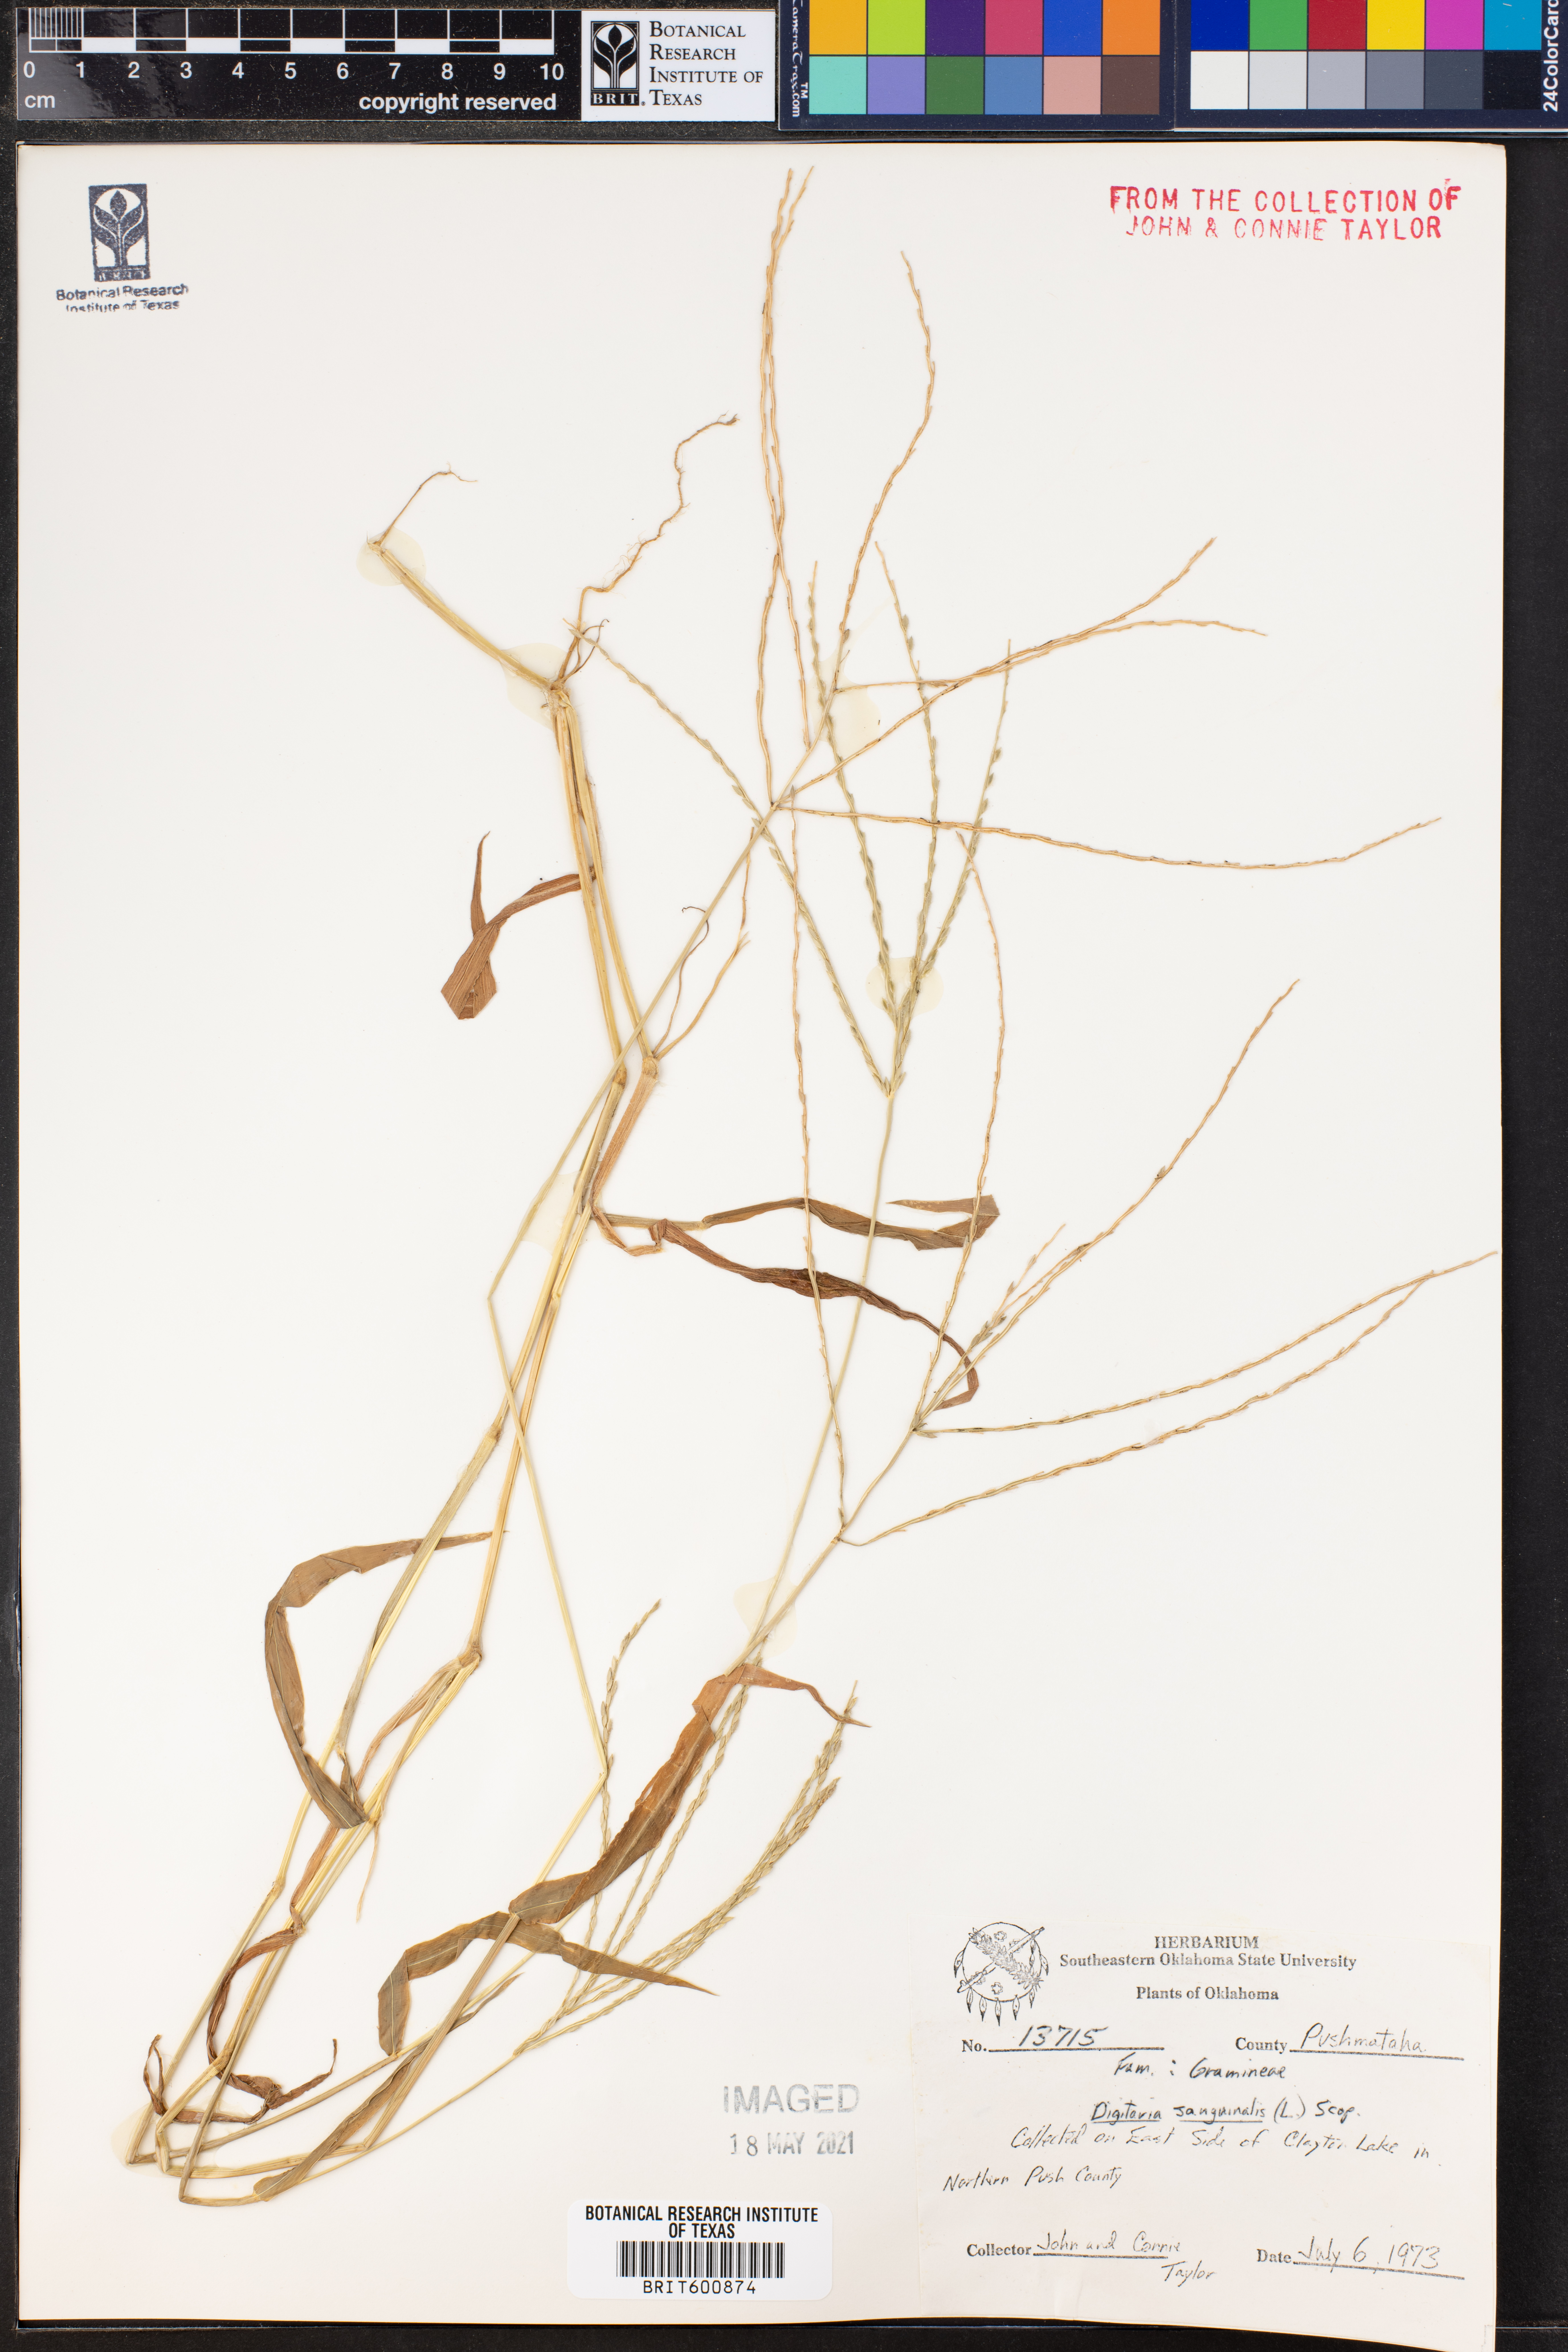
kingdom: Plantae
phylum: Tracheophyta
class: Liliopsida
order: Poales
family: Poaceae
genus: Digitaria
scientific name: Digitaria sanguinalis
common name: Hairy crabgrass
